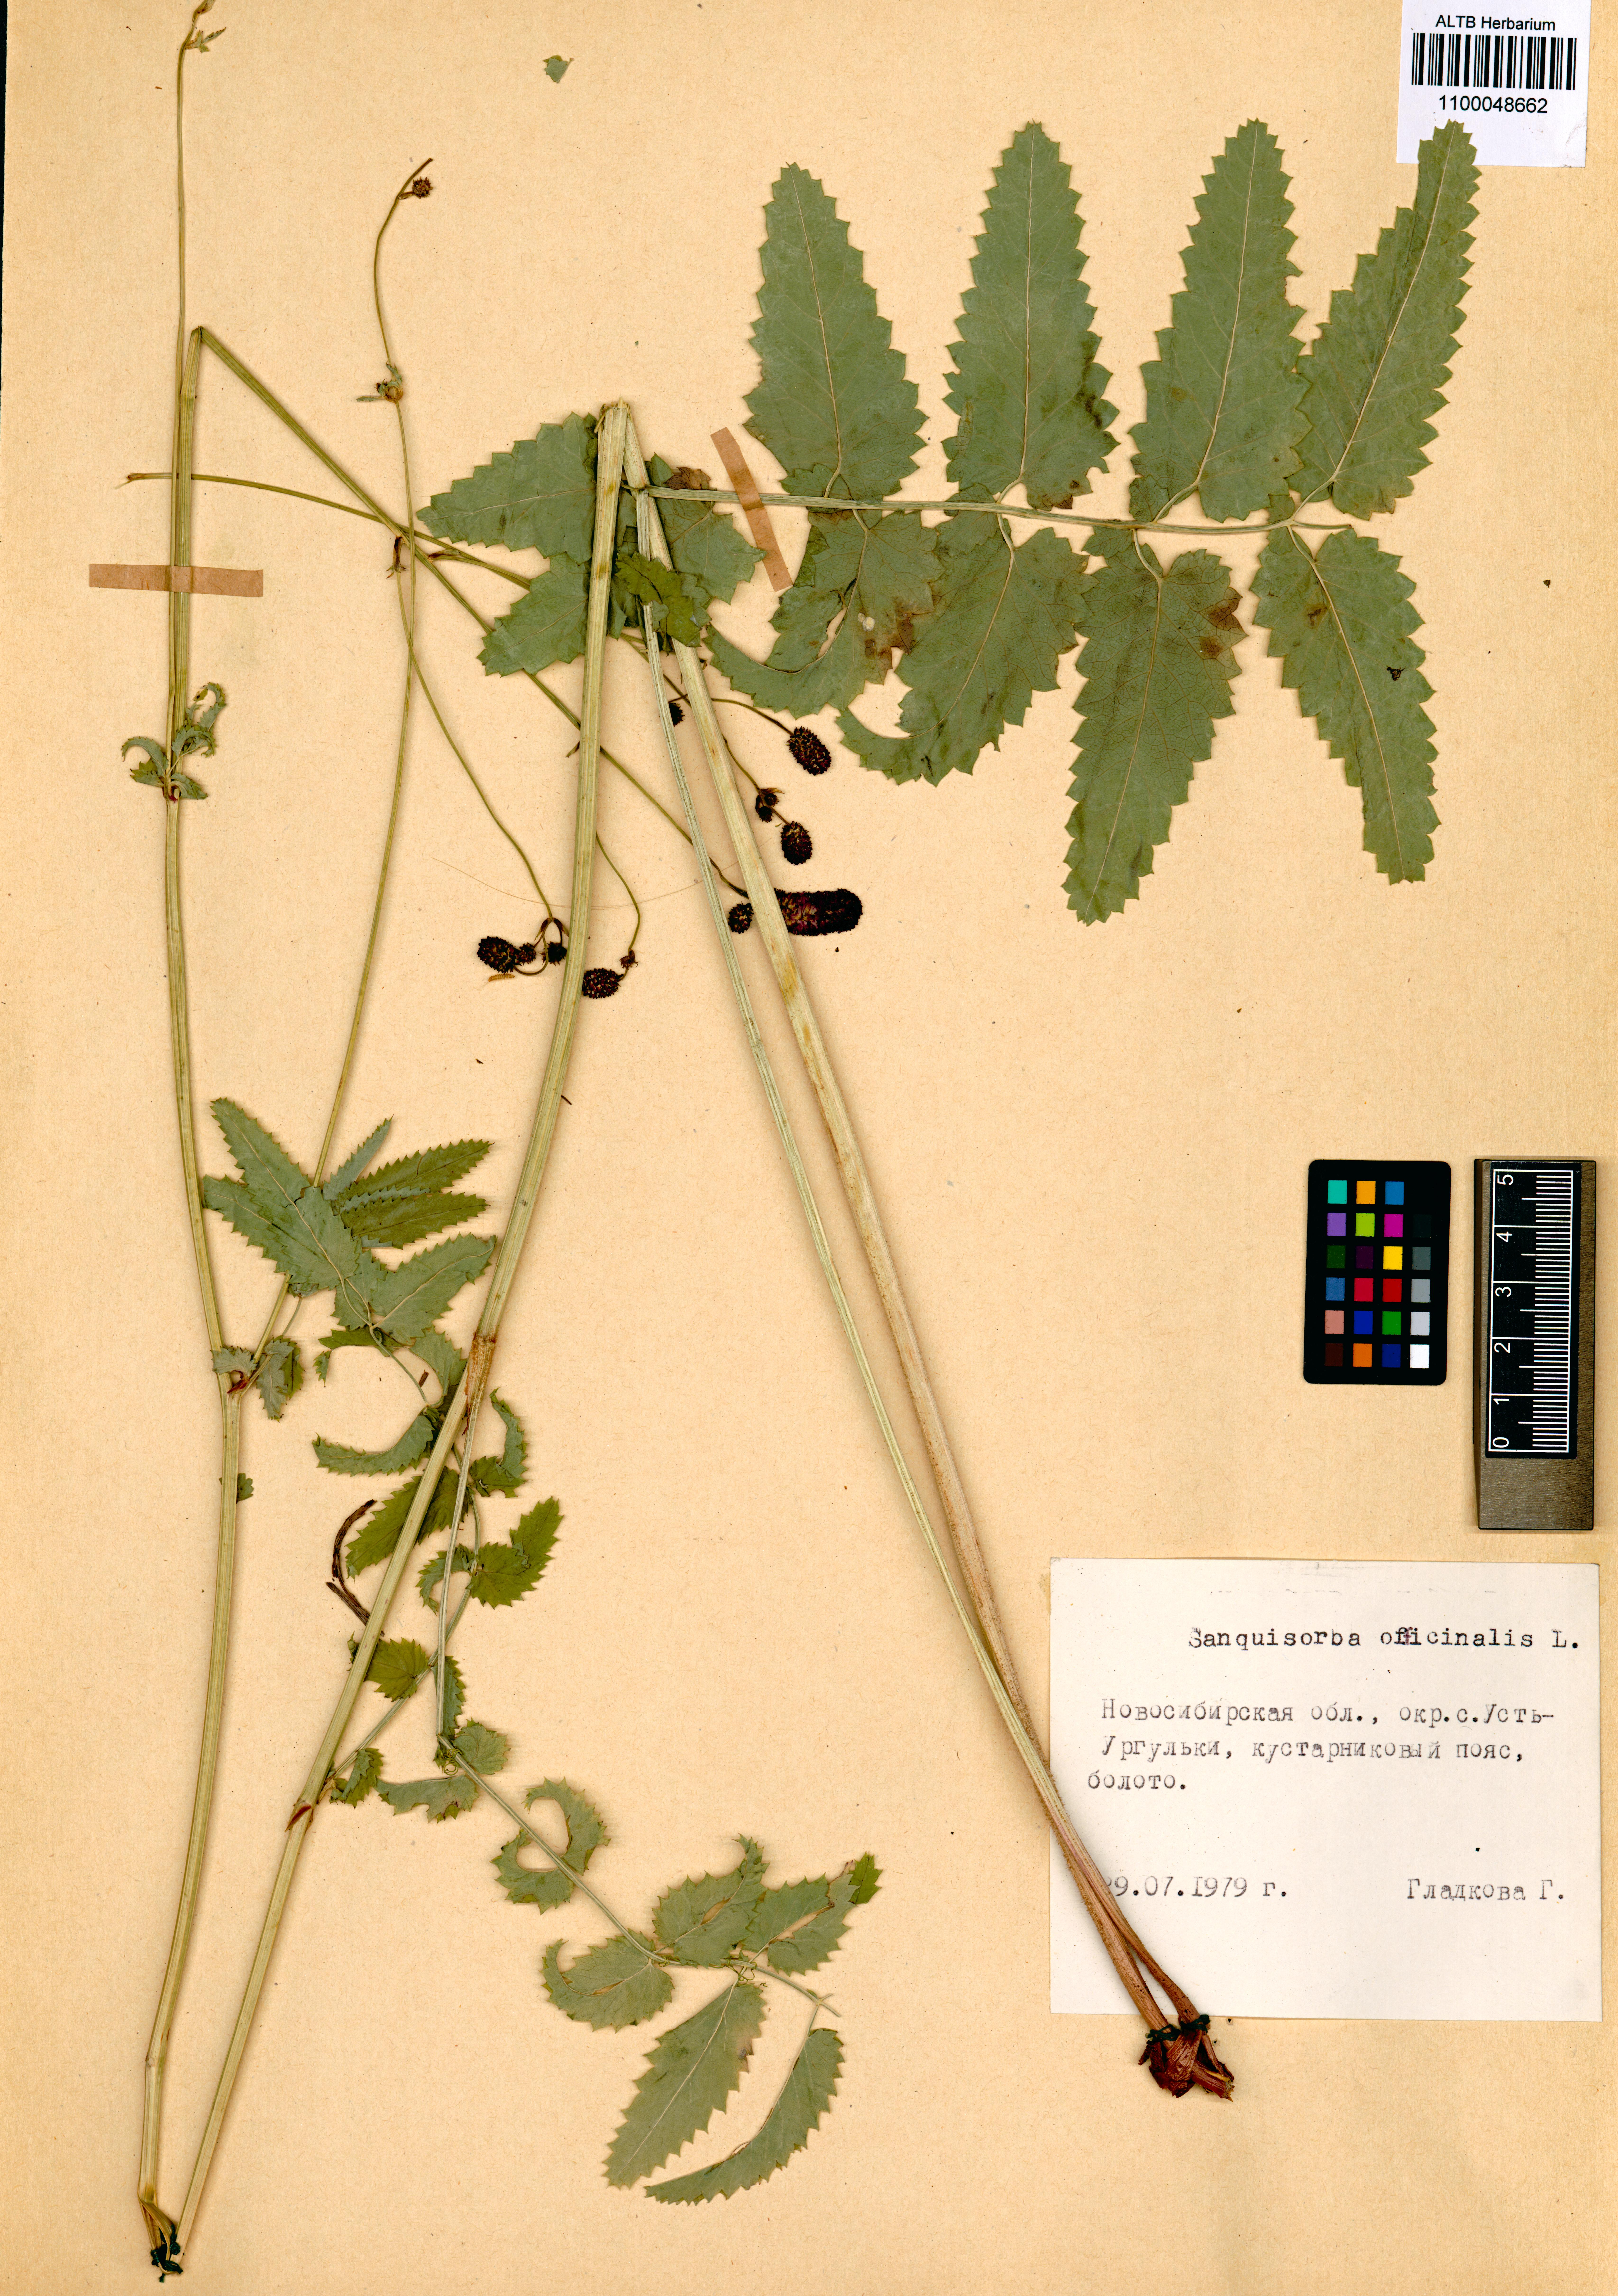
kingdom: Plantae
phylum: Tracheophyta
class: Magnoliopsida
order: Rosales
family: Rosaceae
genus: Sanguisorba
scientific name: Sanguisorba officinalis
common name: Great burnet
